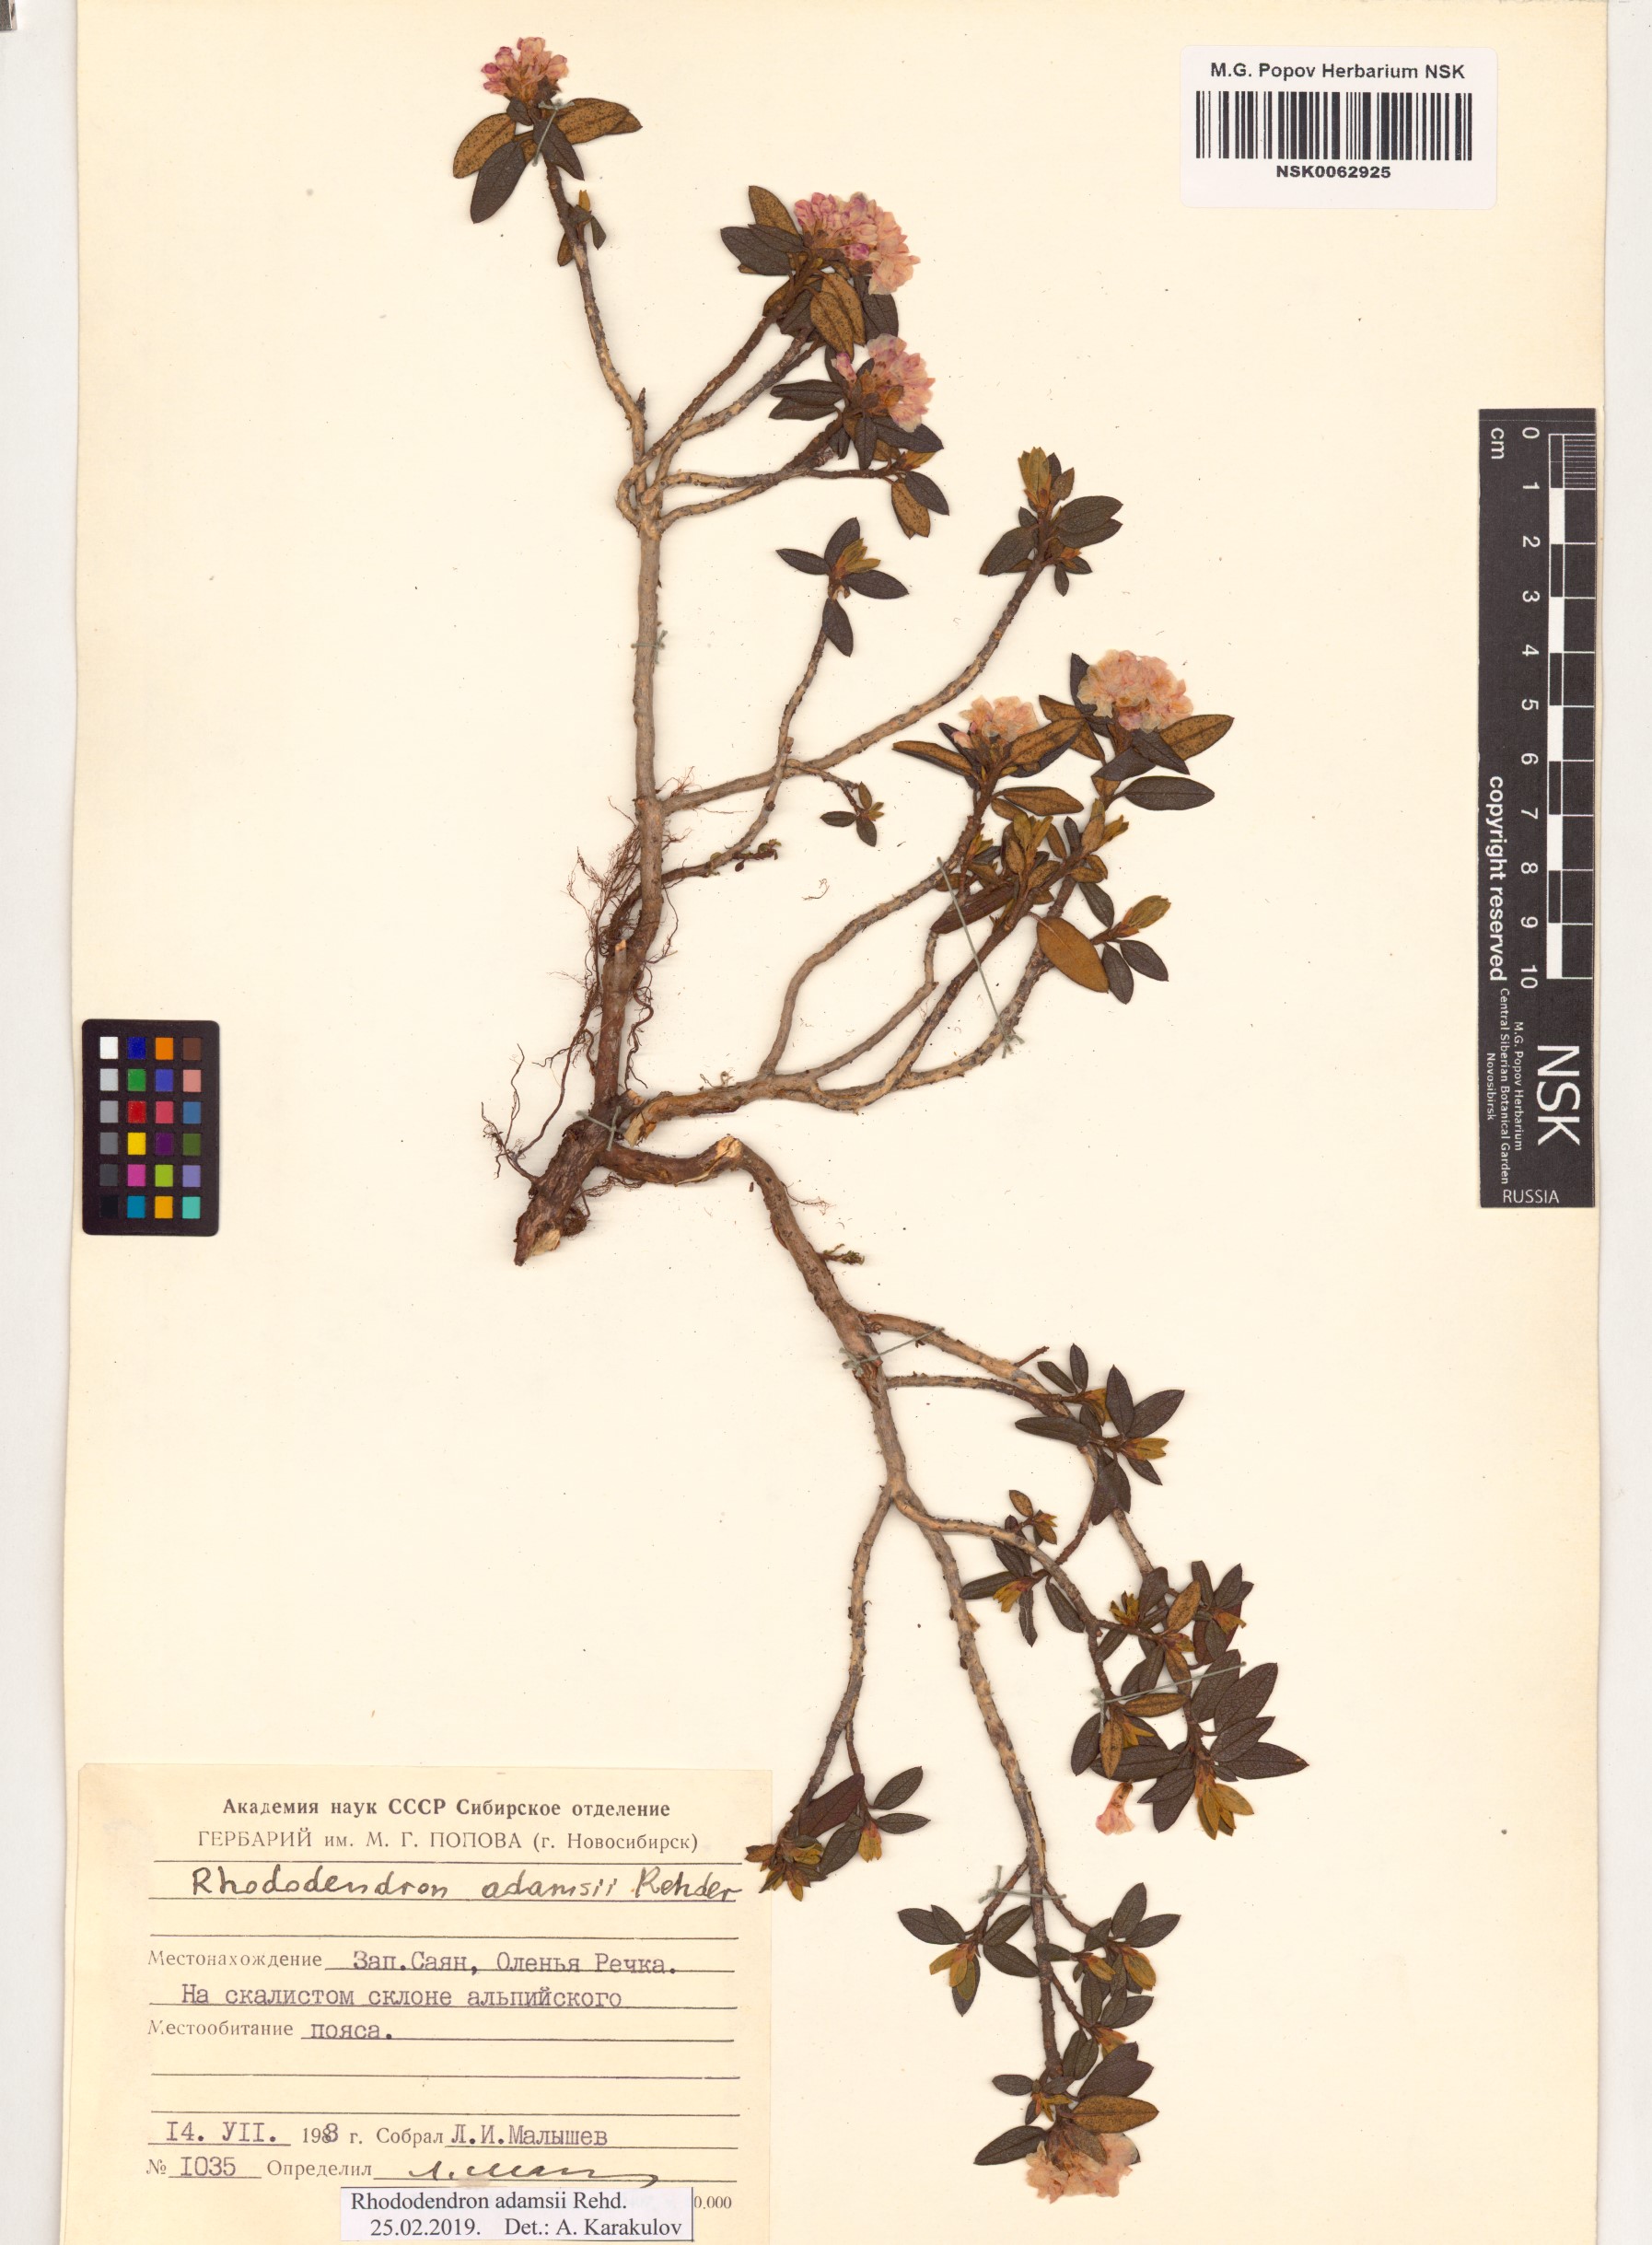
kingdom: Plantae
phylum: Tracheophyta
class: Magnoliopsida
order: Ericales
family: Ericaceae
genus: Rhododendron
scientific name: Rhododendron adamsii
